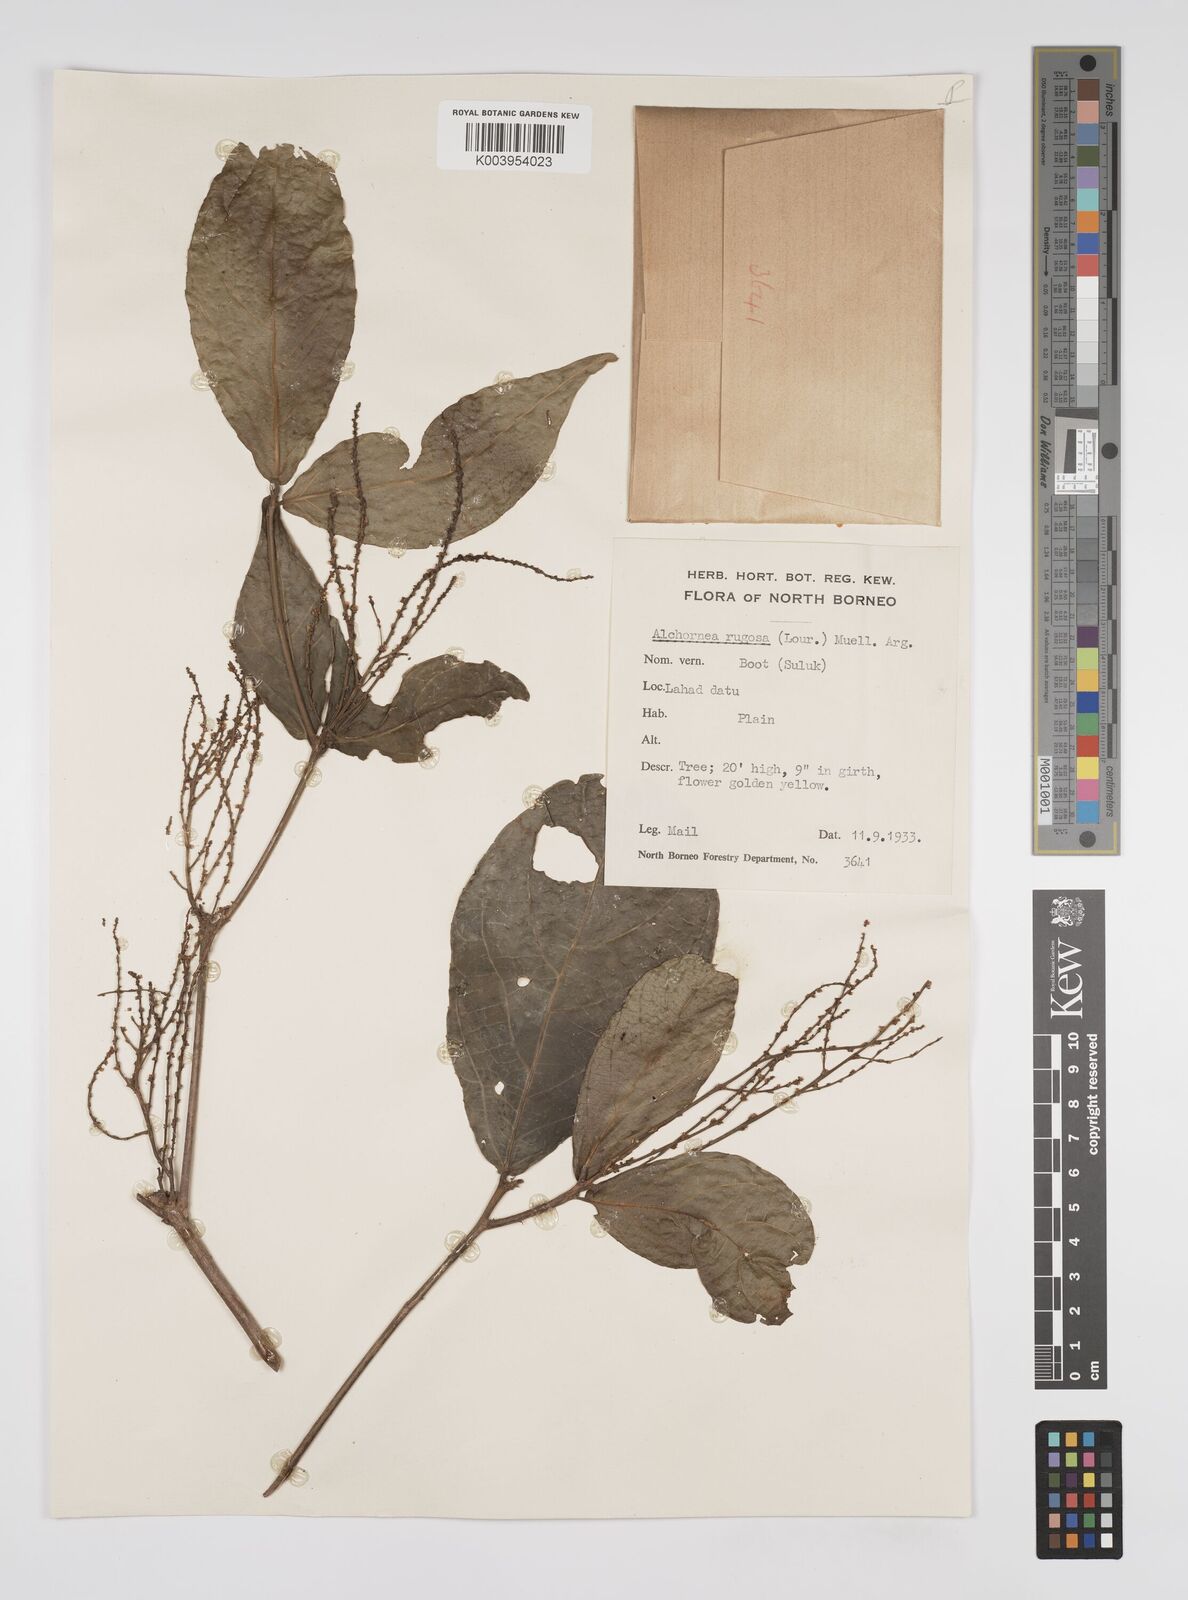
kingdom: Plantae
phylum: Tracheophyta
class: Magnoliopsida
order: Malpighiales
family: Euphorbiaceae
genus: Alchornea
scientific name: Alchornea rugosa
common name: Alchorntree
